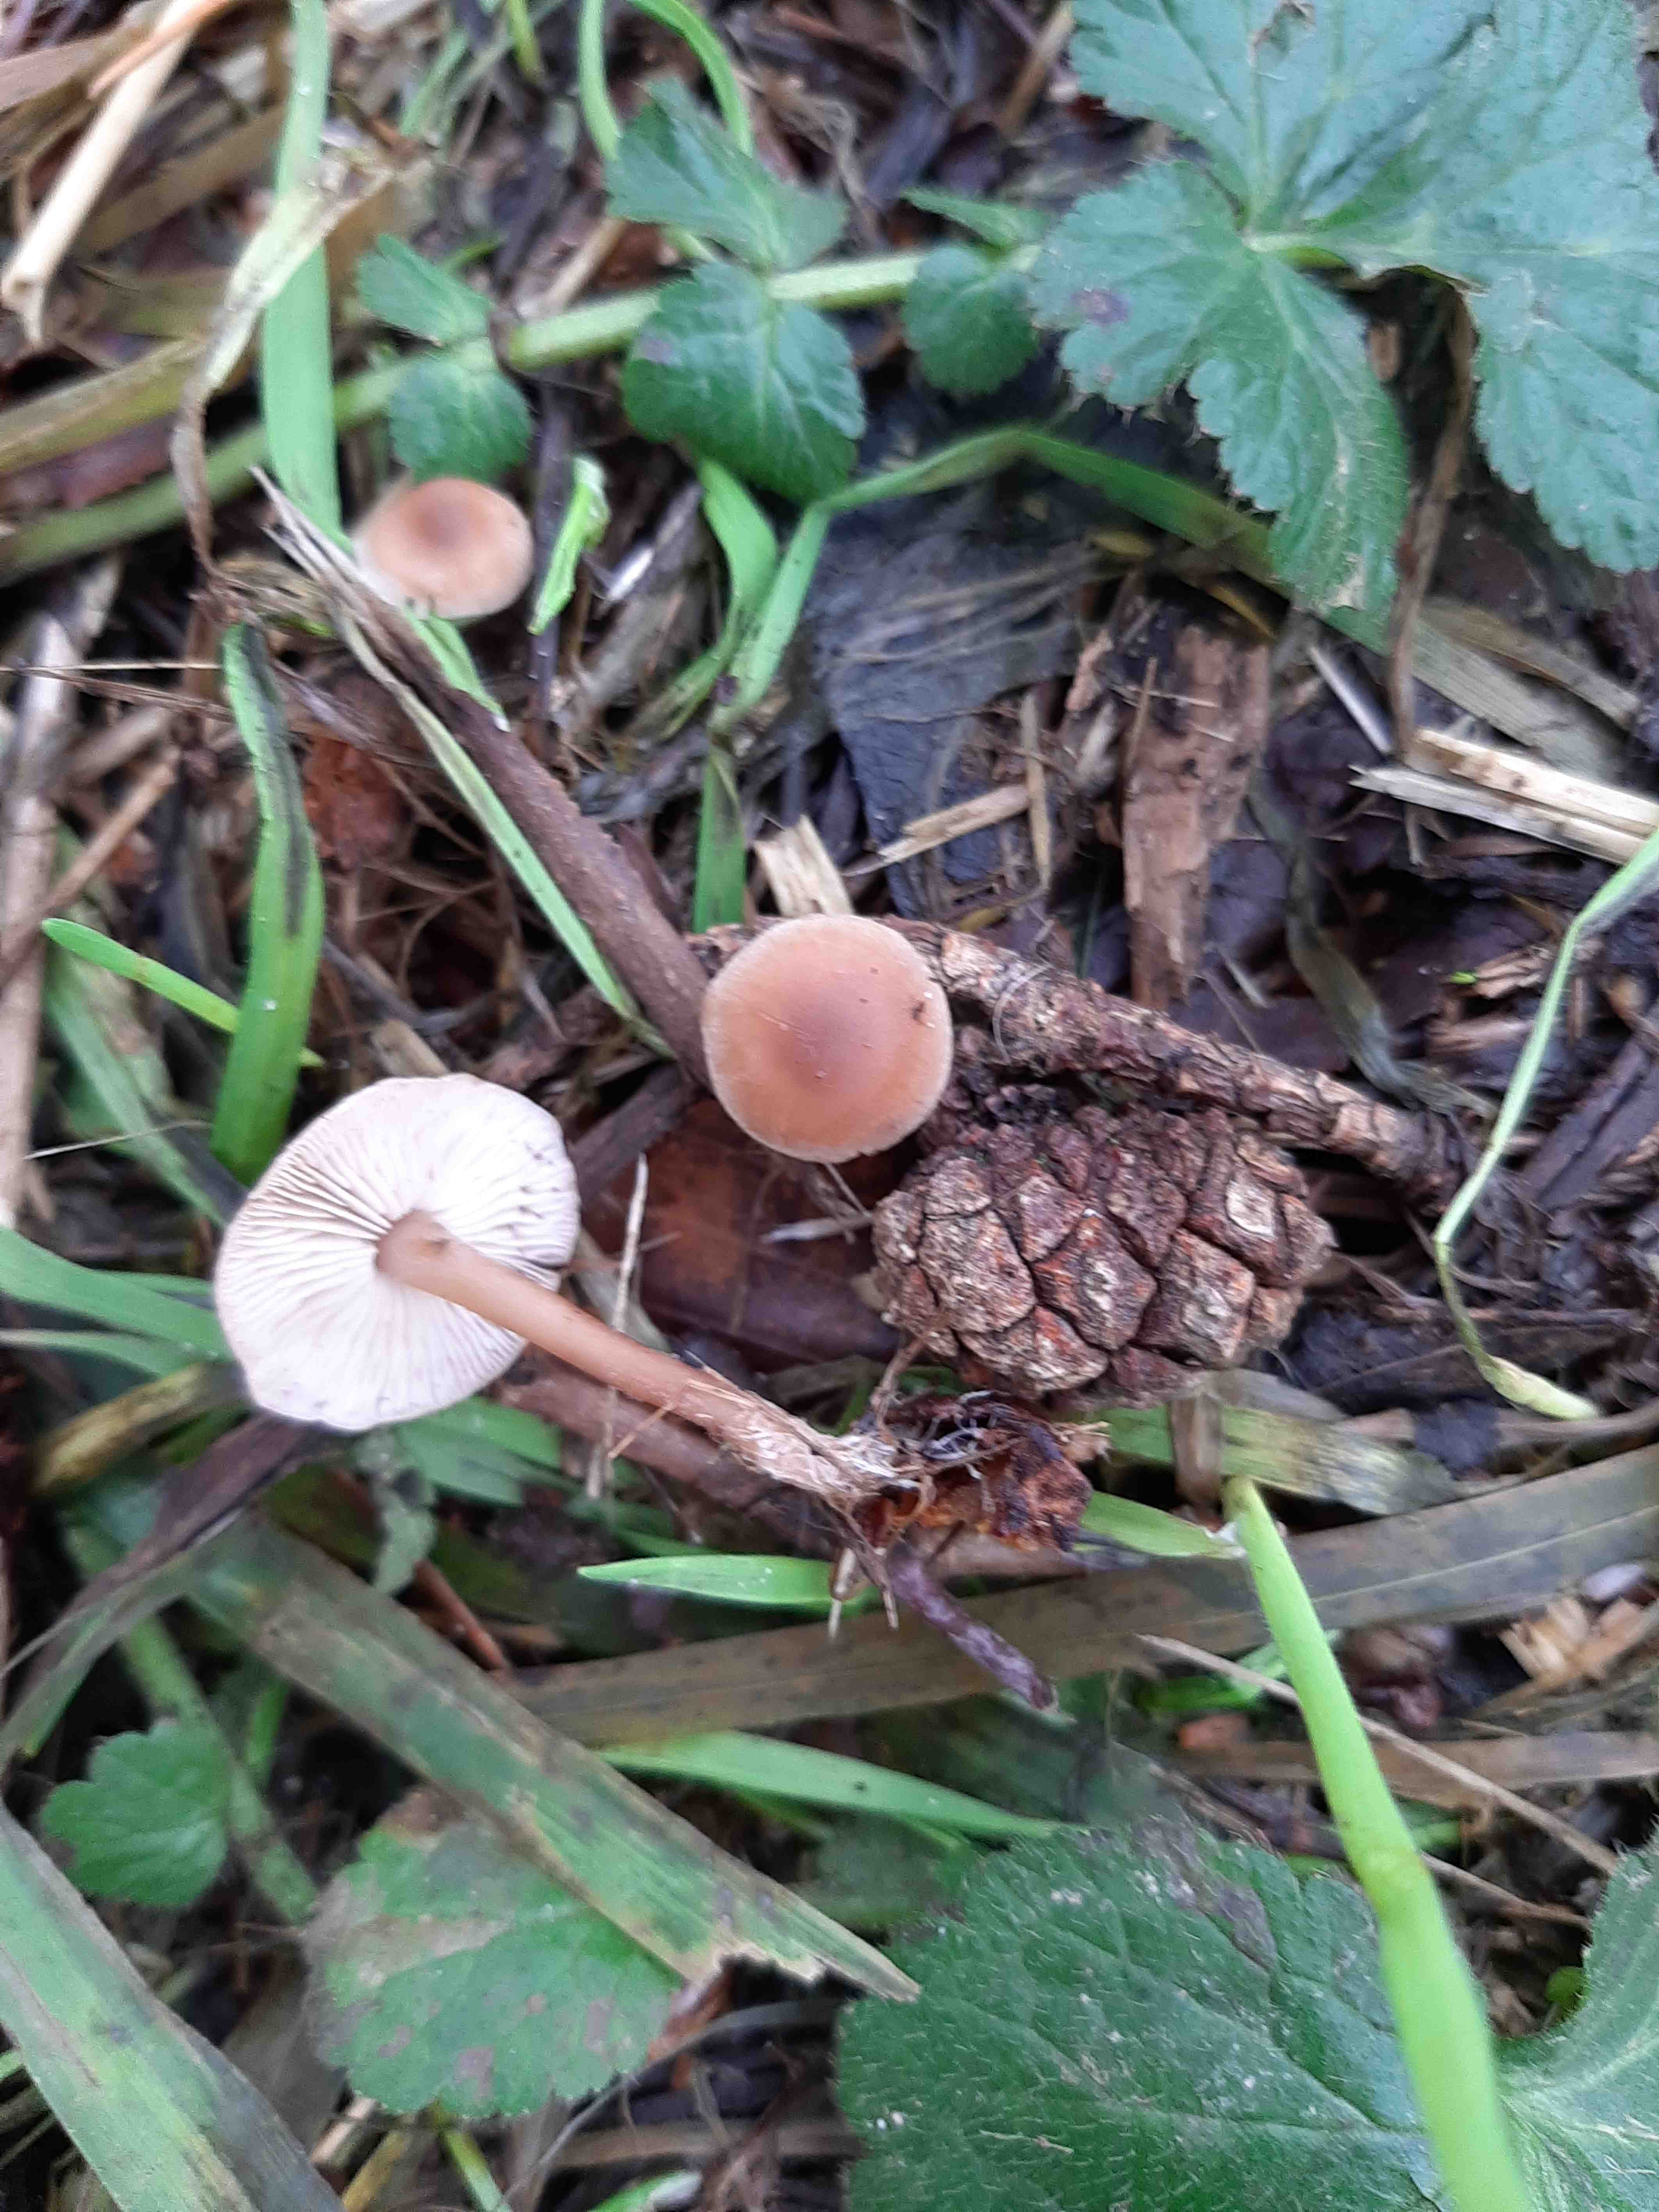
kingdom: Fungi
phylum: Basidiomycota
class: Agaricomycetes
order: Agaricales
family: Marasmiaceae
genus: Baeospora
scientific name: Baeospora myosura
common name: koglebruskhat
